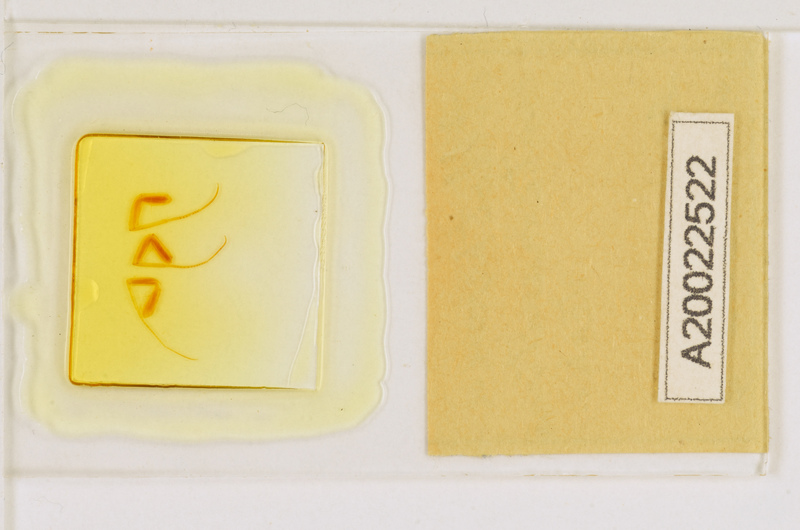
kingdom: Animalia
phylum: Arthropoda
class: Chilopoda
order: Scutigeromorpha
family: Scutigeridae
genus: Allothereua
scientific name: Allothereua
